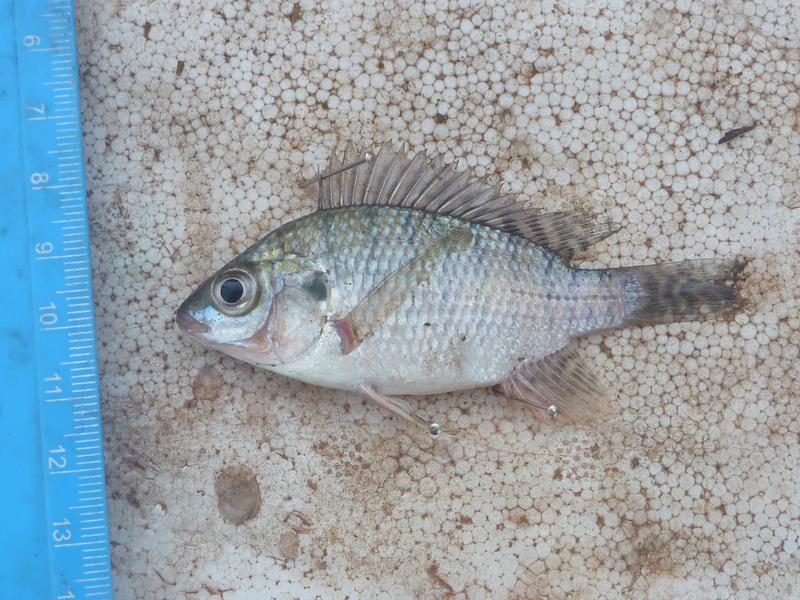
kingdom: Animalia
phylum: Chordata
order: Perciformes
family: Cichlidae
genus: Oreochromis
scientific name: Oreochromis niloticus
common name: Nile tilapia
